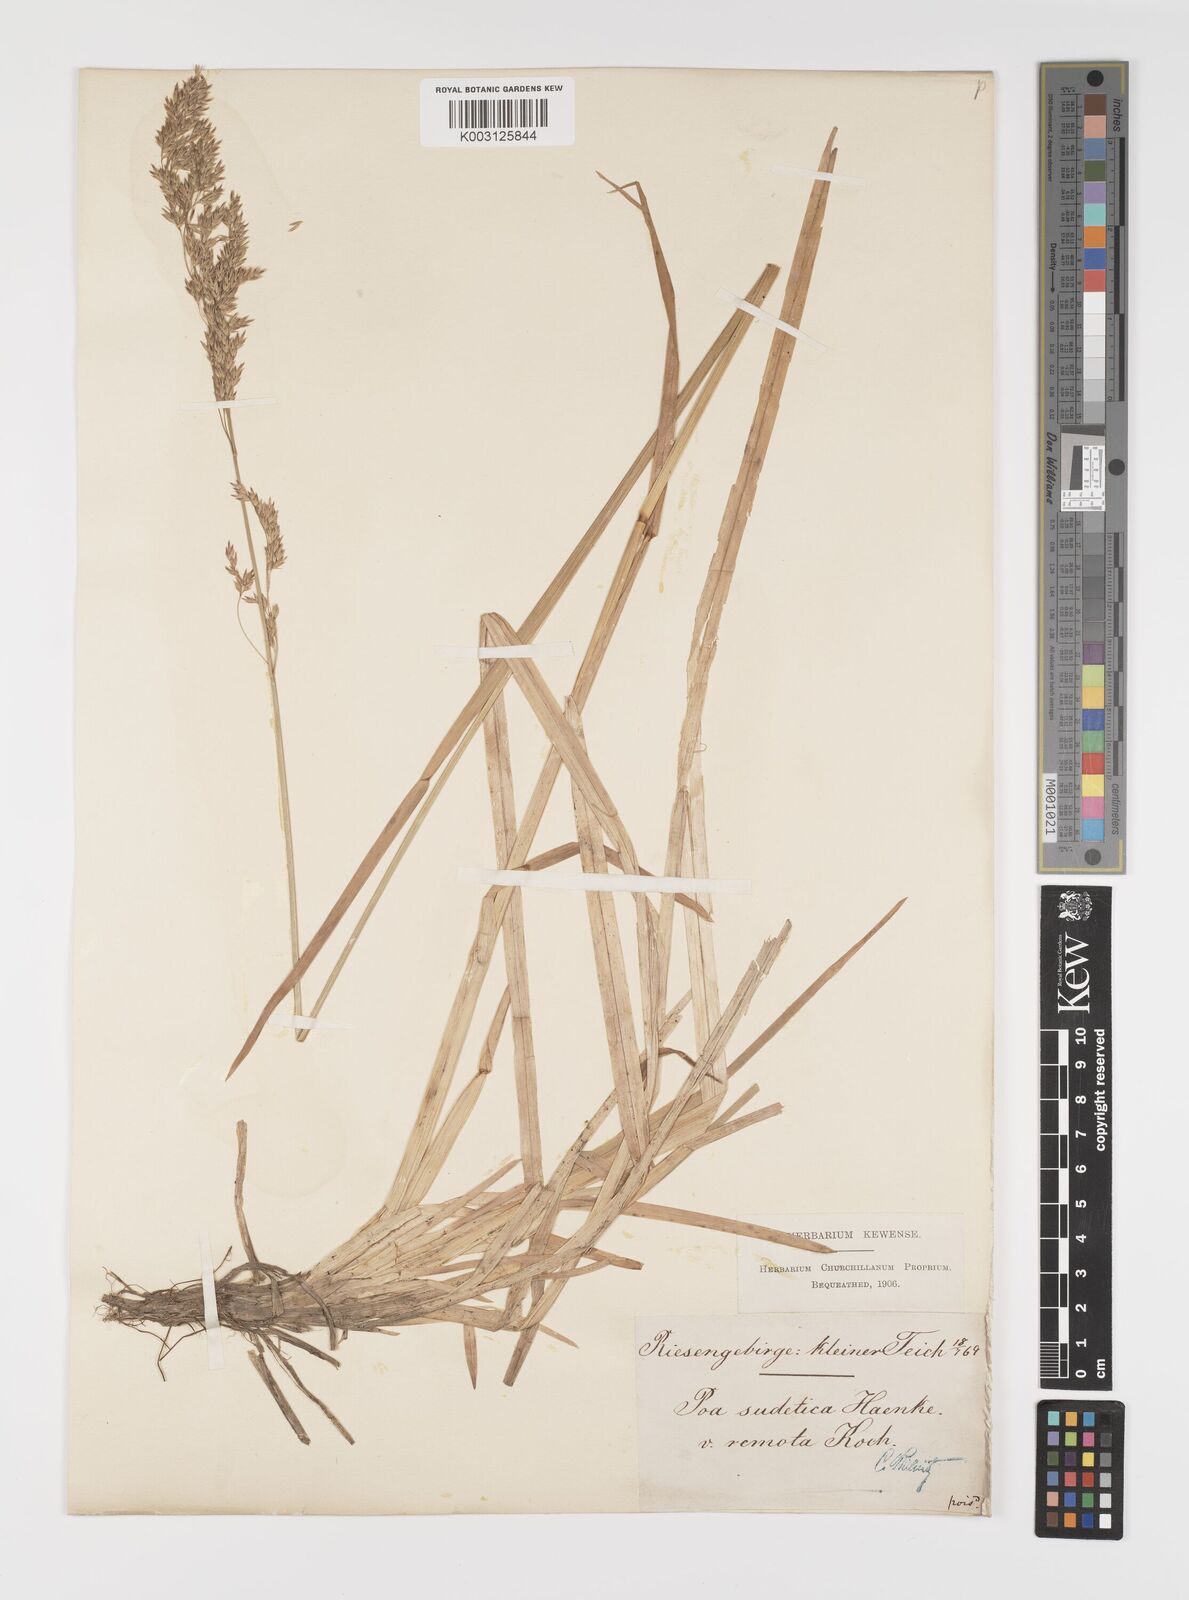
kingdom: Plantae
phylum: Tracheophyta
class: Liliopsida
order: Poales
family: Poaceae
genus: Poa
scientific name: Poa remota
